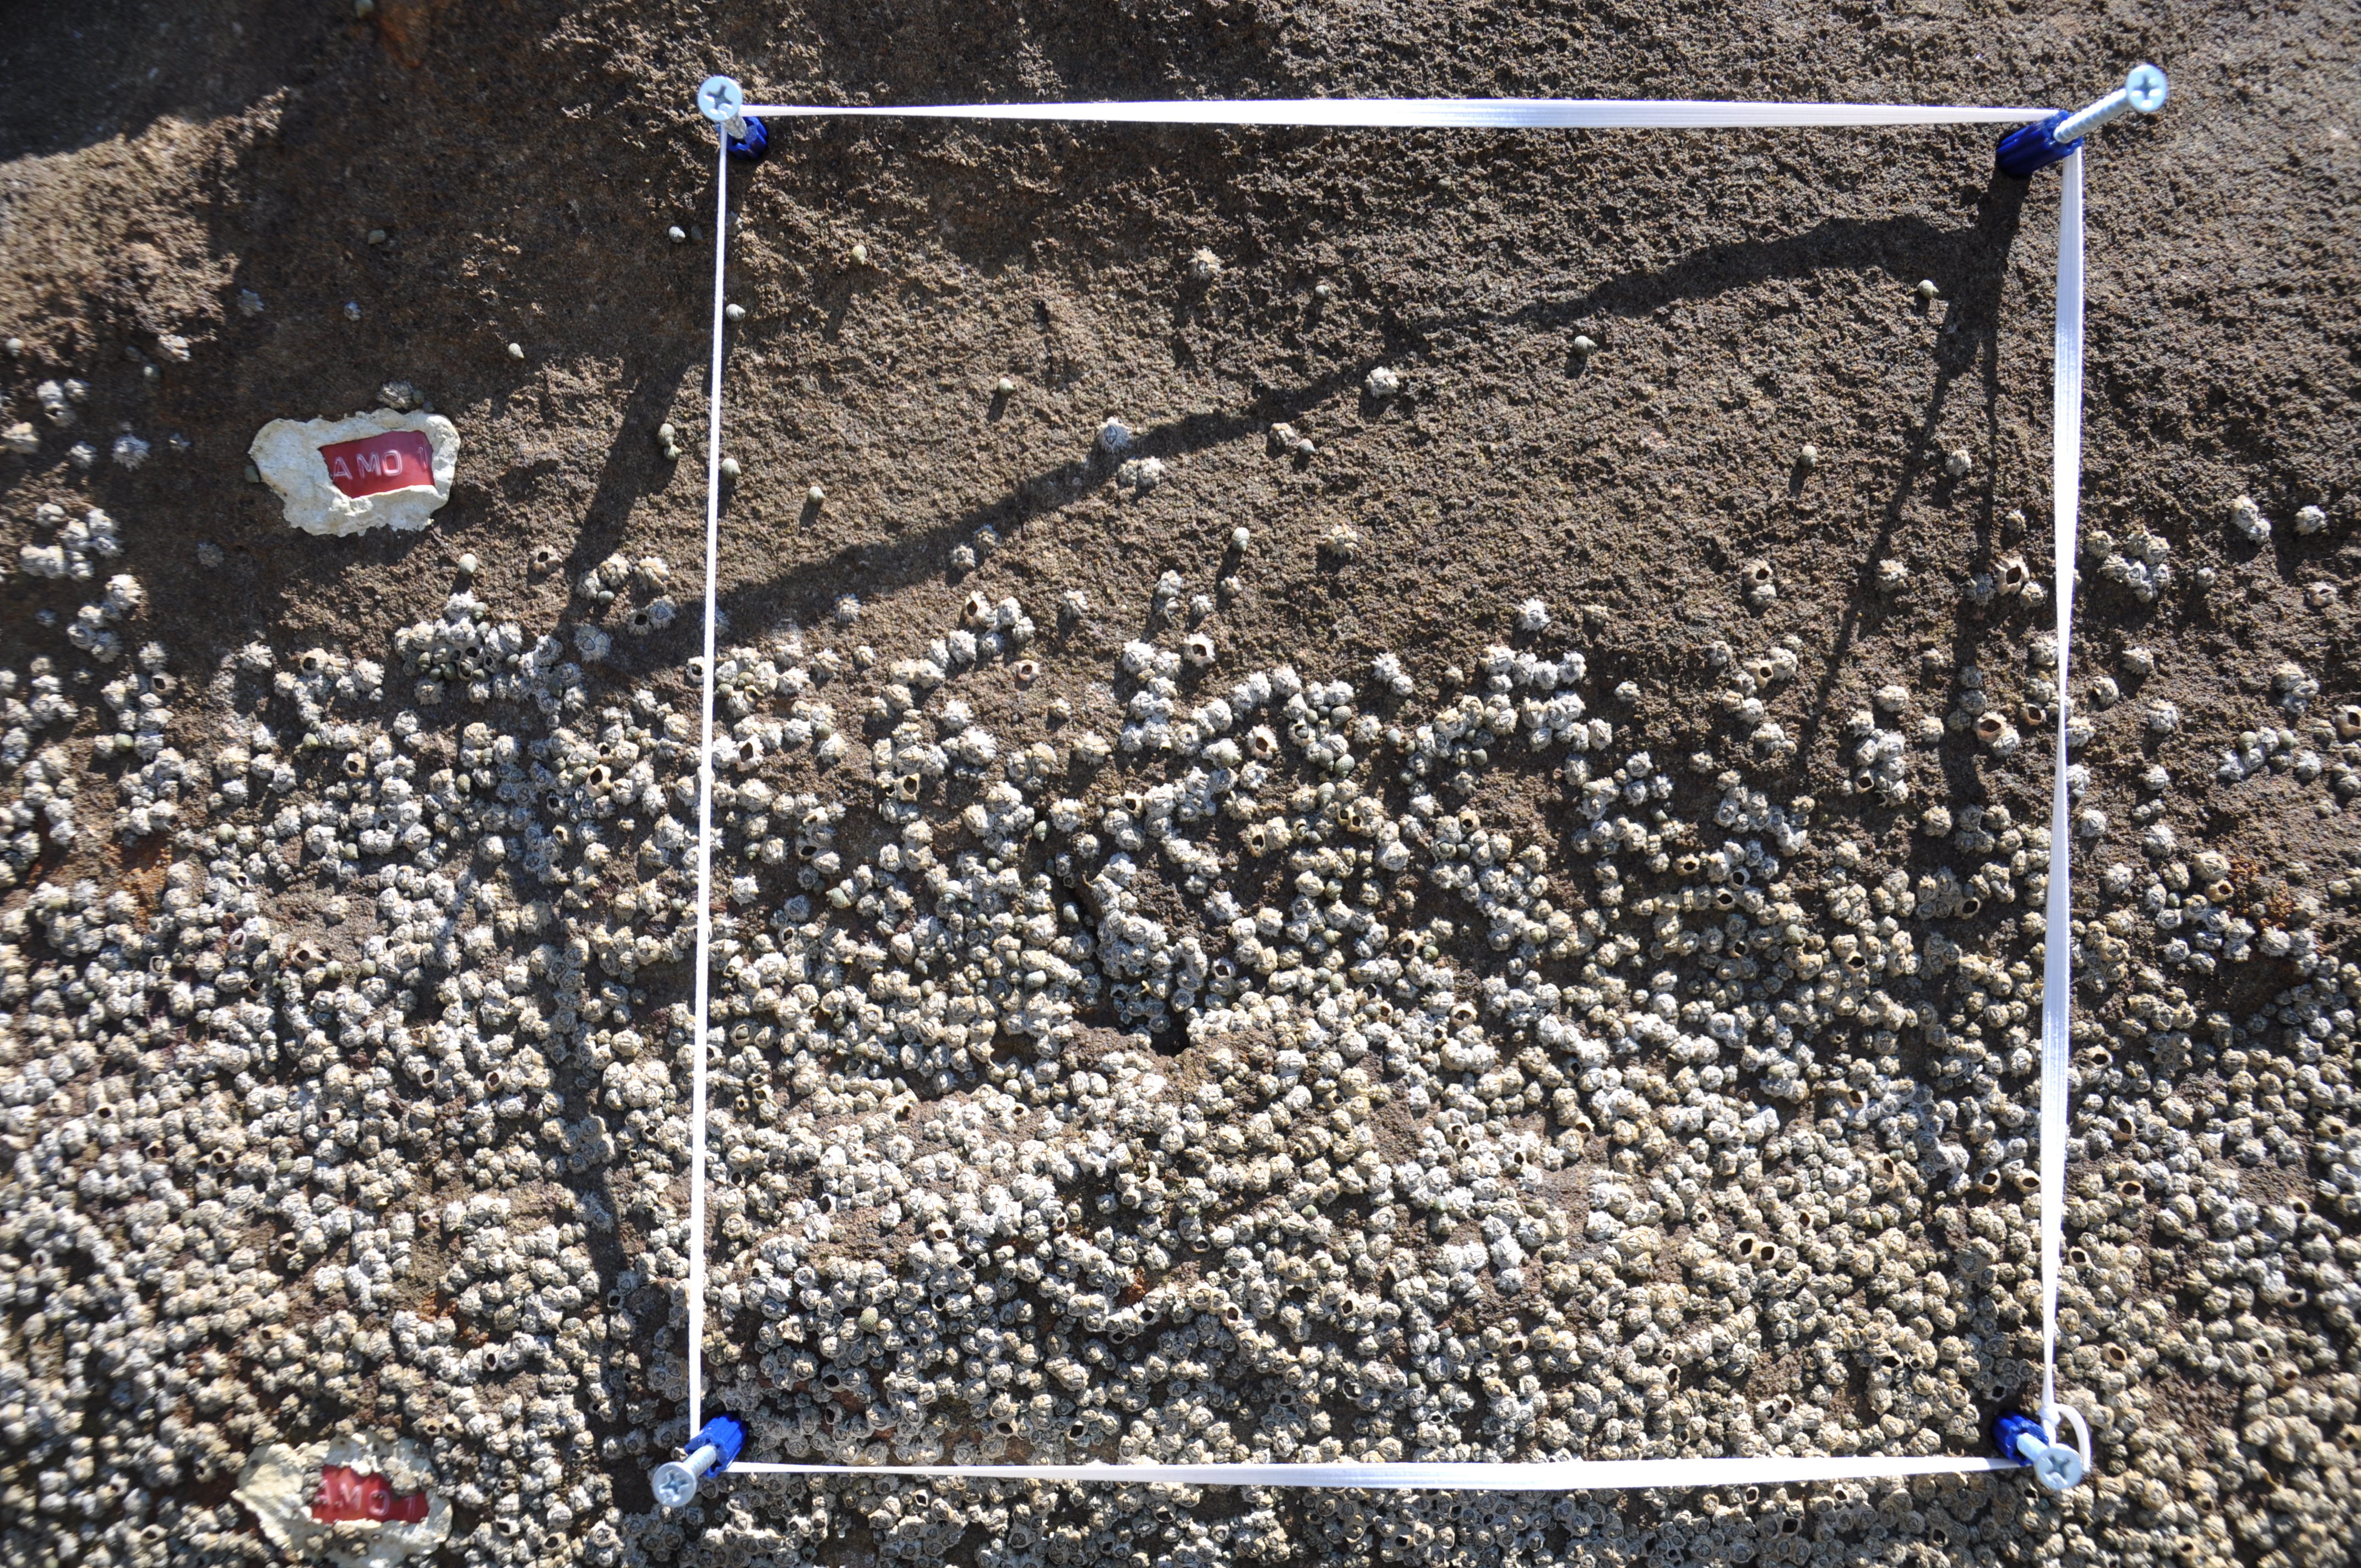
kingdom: Animalia
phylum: Arthropoda
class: Maxillopoda
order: Sessilia
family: Chthamalidae
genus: Chthamalus
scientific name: Chthamalus challengeri
